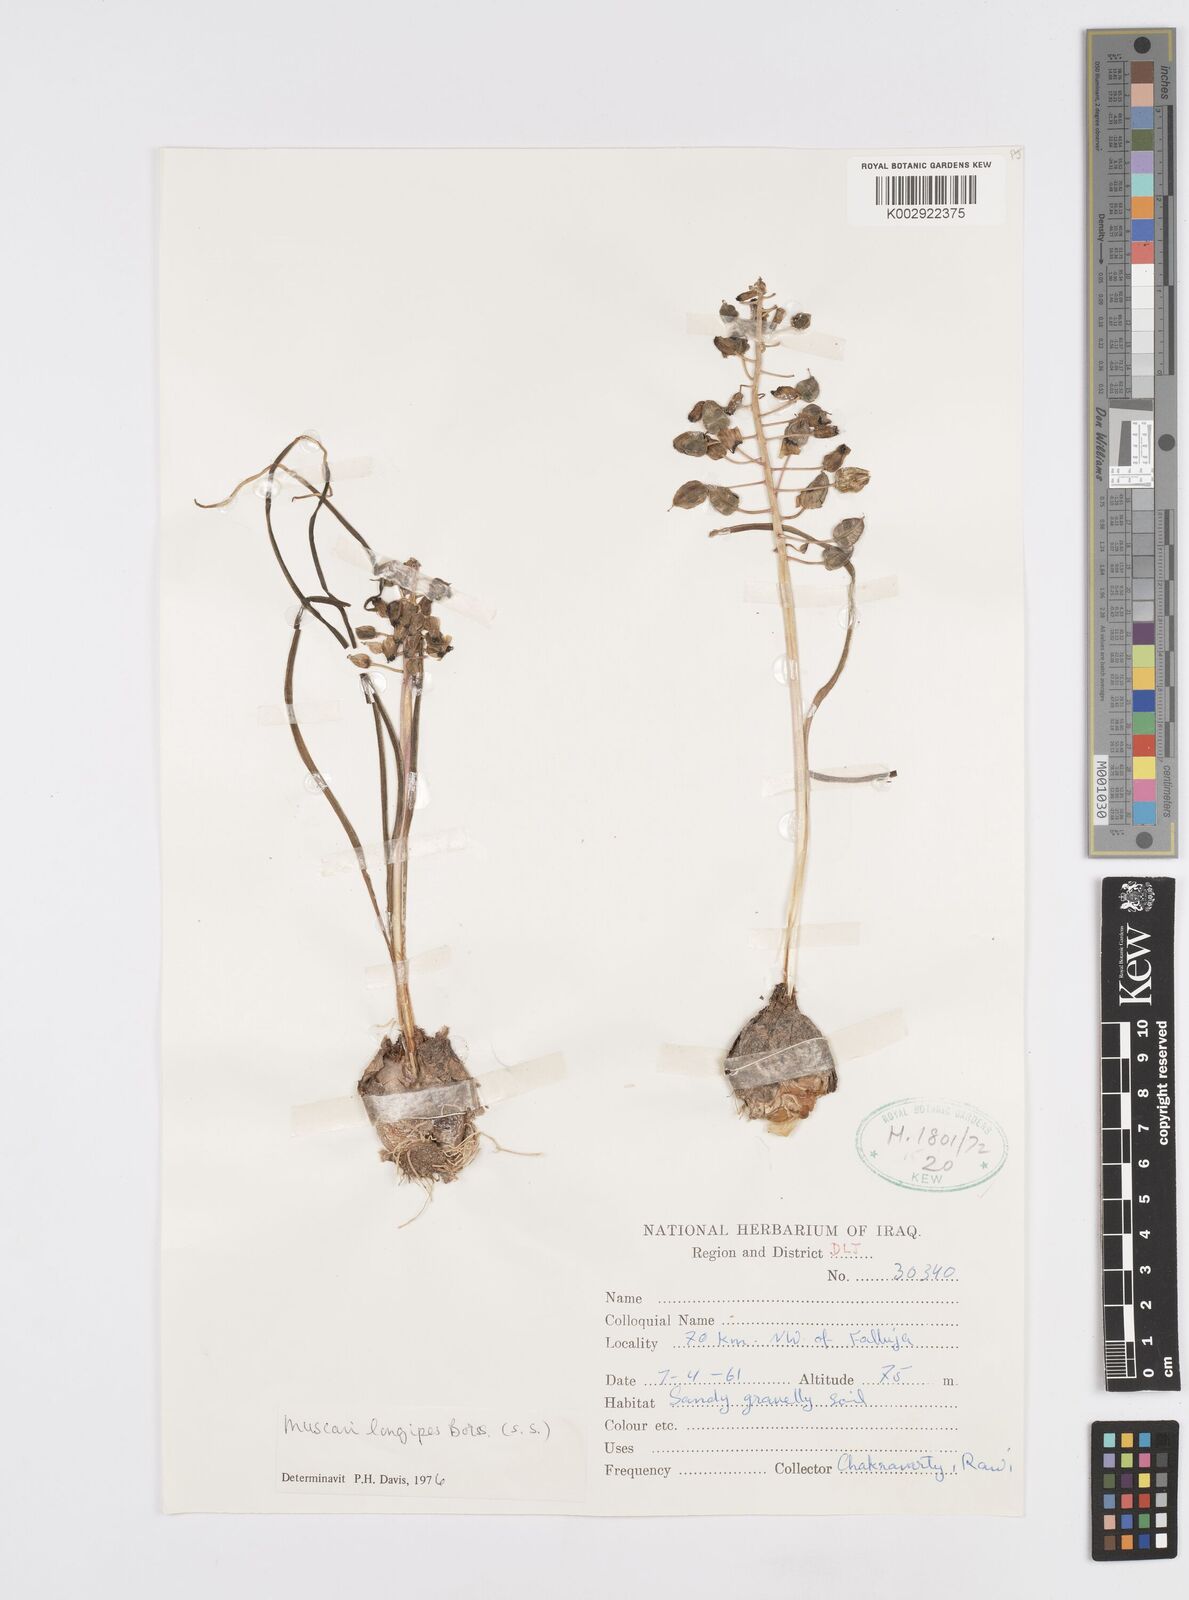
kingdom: Plantae
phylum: Tracheophyta
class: Liliopsida
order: Asparagales
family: Asparagaceae
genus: Muscari
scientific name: Muscari longipes
